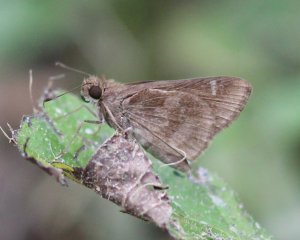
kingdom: Animalia
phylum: Arthropoda
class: Insecta
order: Lepidoptera
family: Hesperiidae
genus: Cymaenes
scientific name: Cymaenes odilia
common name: Fawn-spotted Skipper
